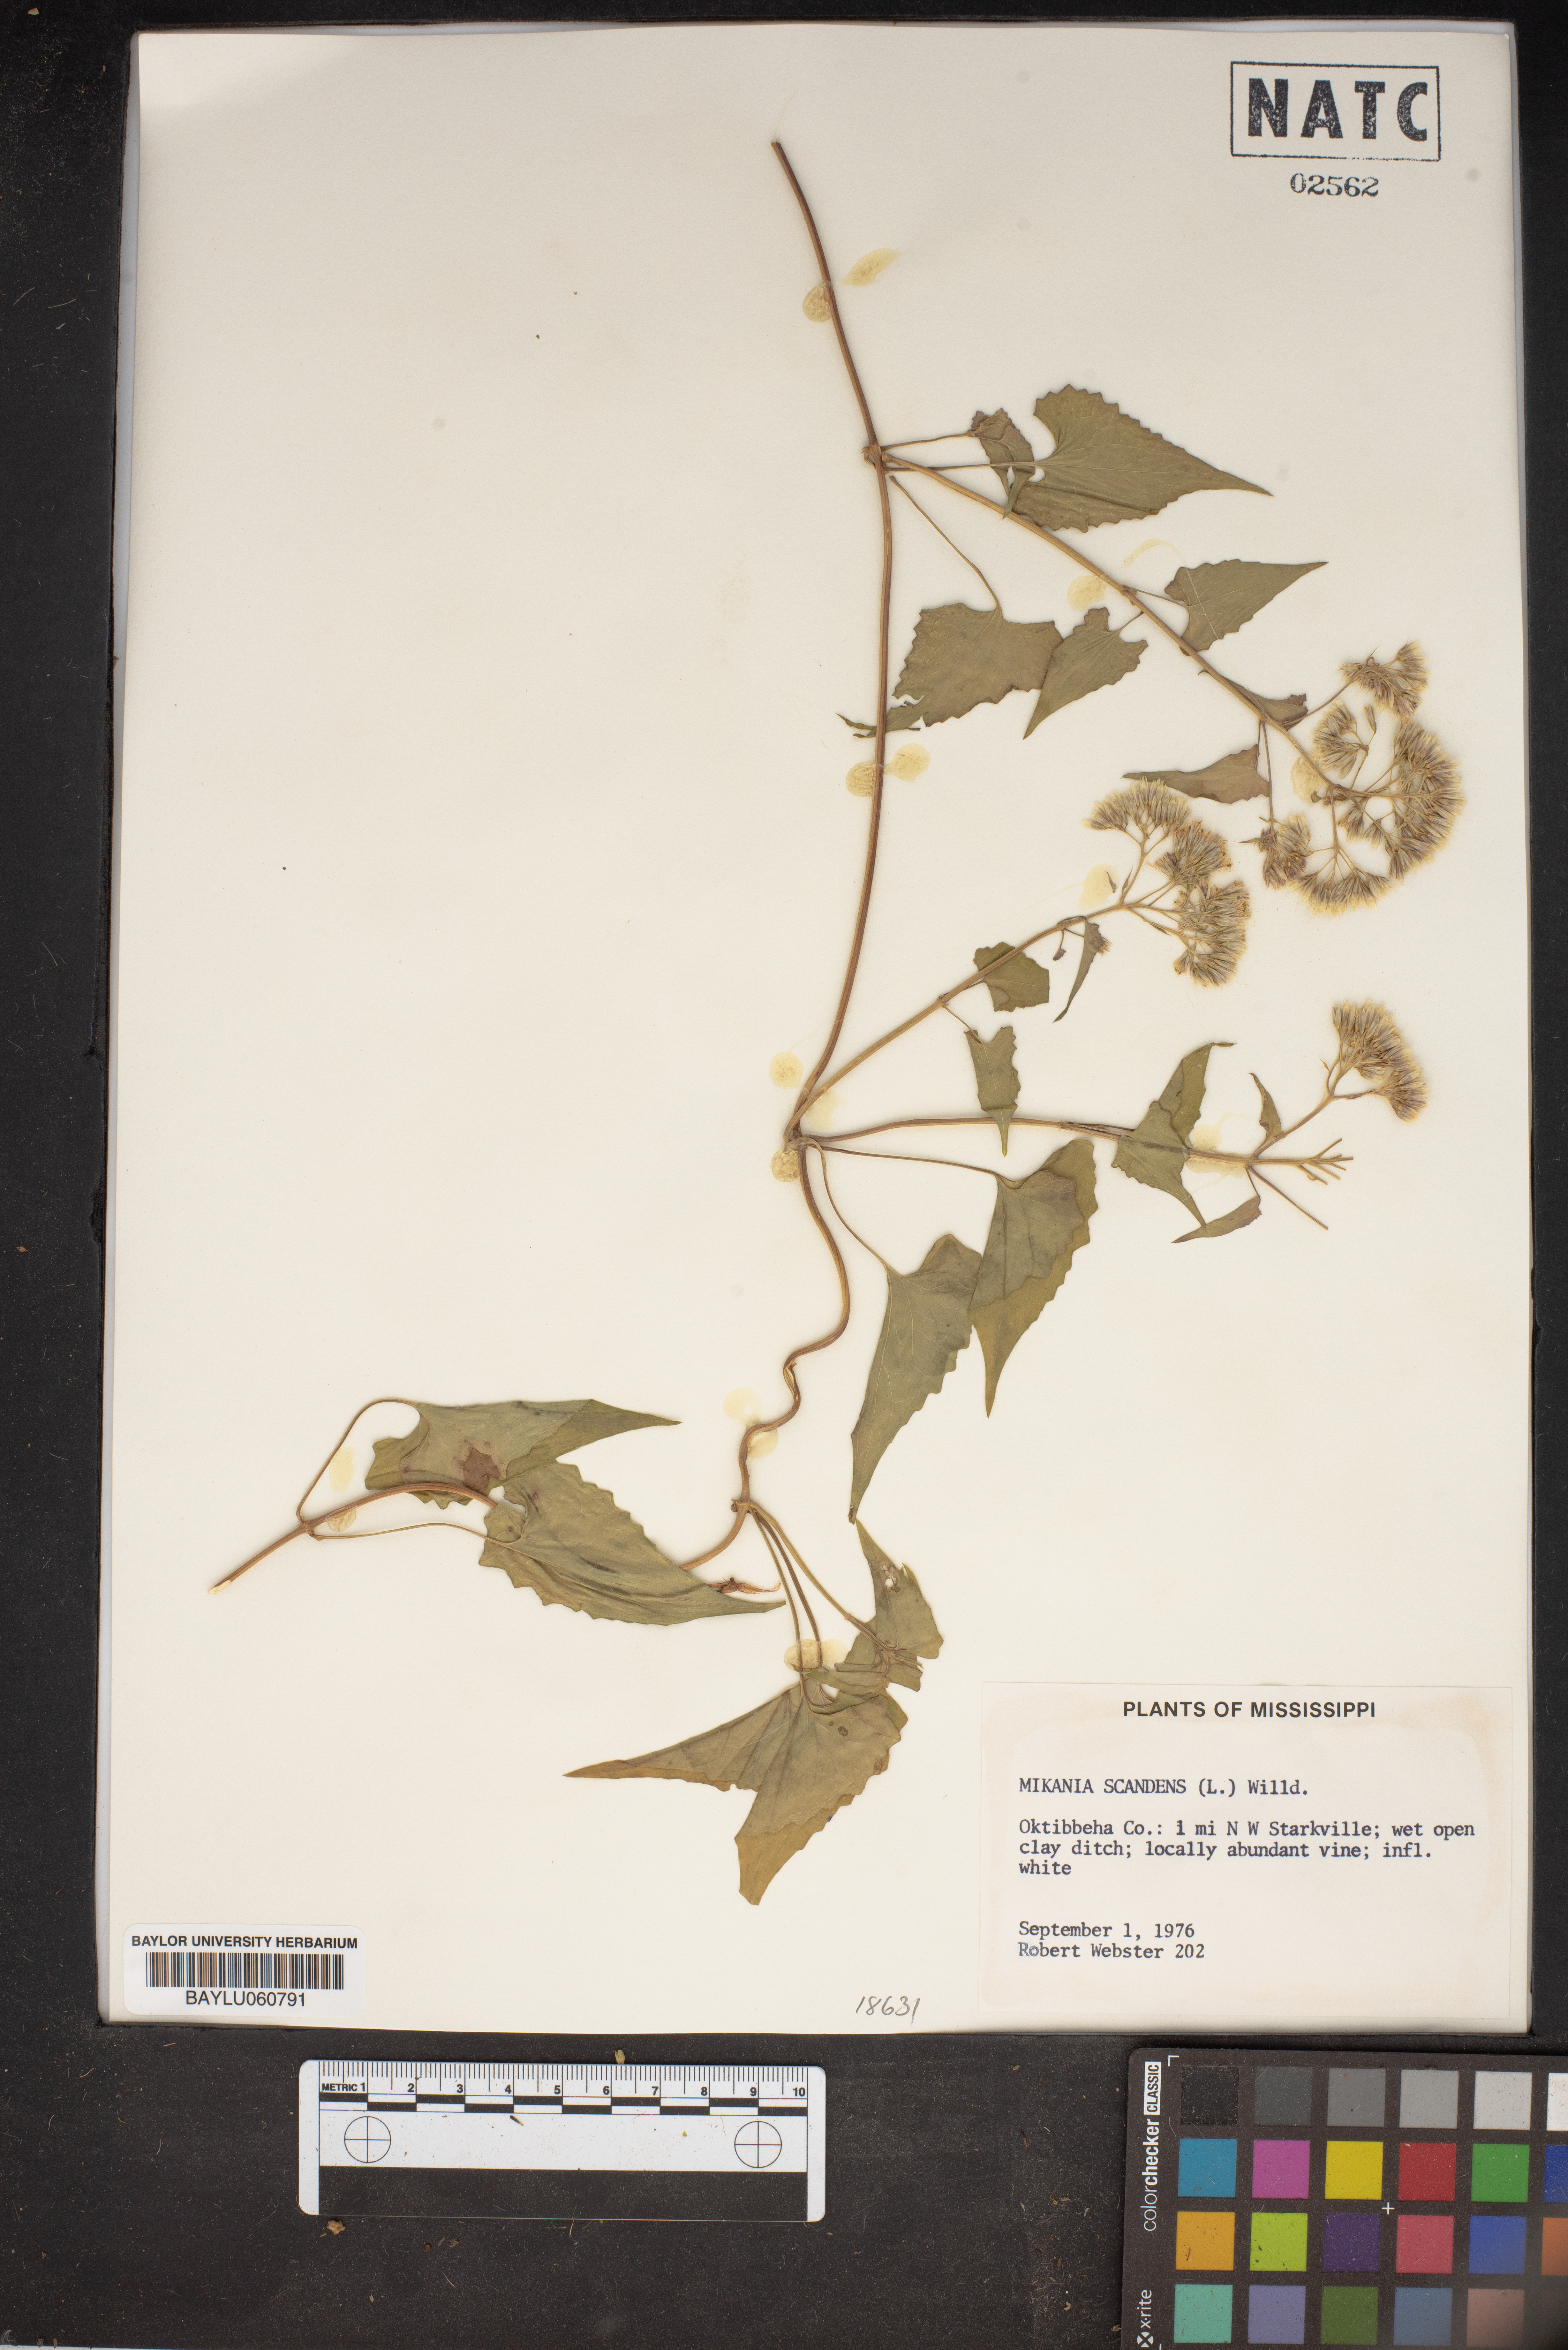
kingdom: Plantae
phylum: Tracheophyta
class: Magnoliopsida
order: Asterales
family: Asteraceae
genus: Mikania
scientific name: Mikania scandens
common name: Climbing hempvine
